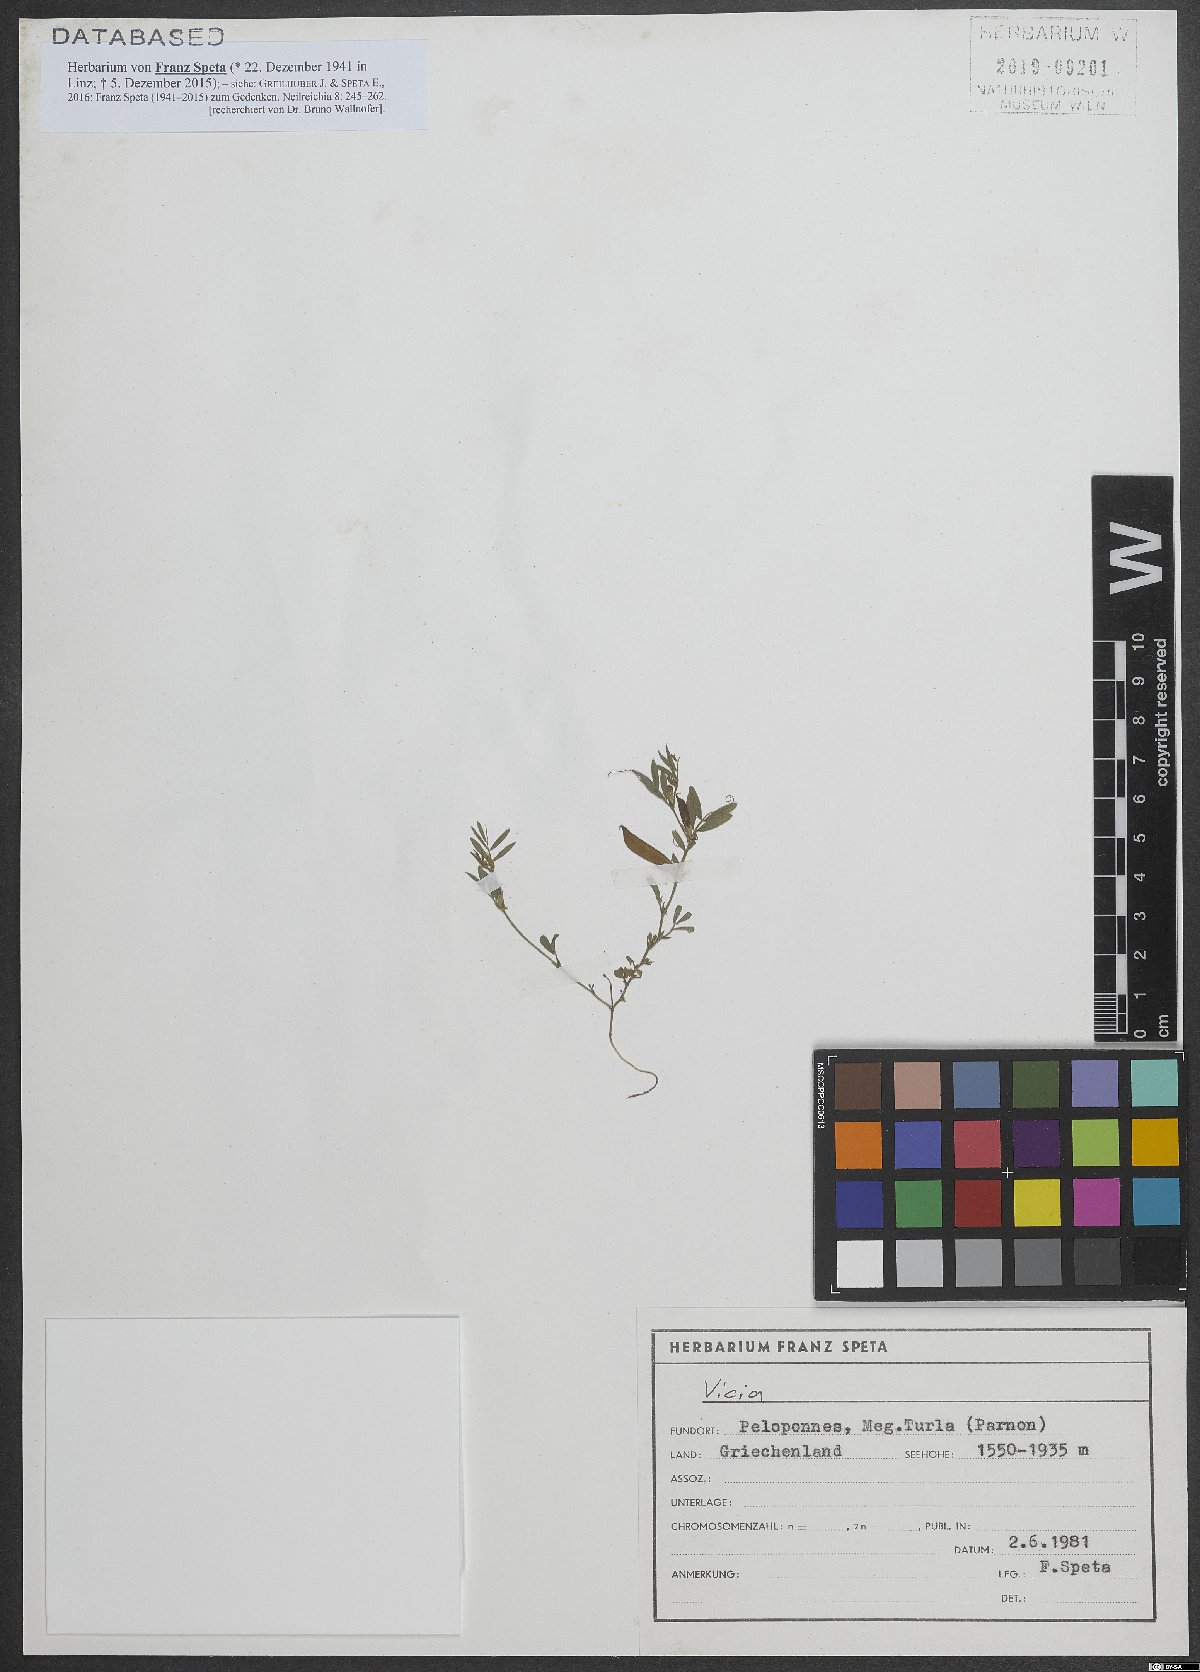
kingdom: Plantae
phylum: Tracheophyta
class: Magnoliopsida
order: Fabales
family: Fabaceae
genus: Vicia
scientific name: Vicia
